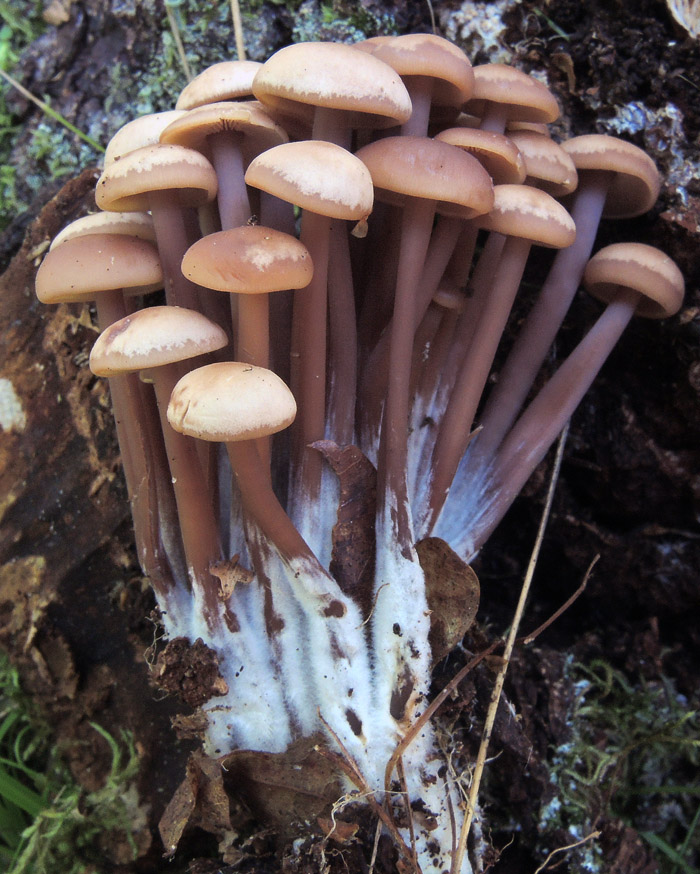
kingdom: Fungi
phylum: Basidiomycota
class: Agaricomycetes
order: Agaricales
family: Omphalotaceae
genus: Connopus
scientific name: Connopus acervatus
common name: tue-fladhat
